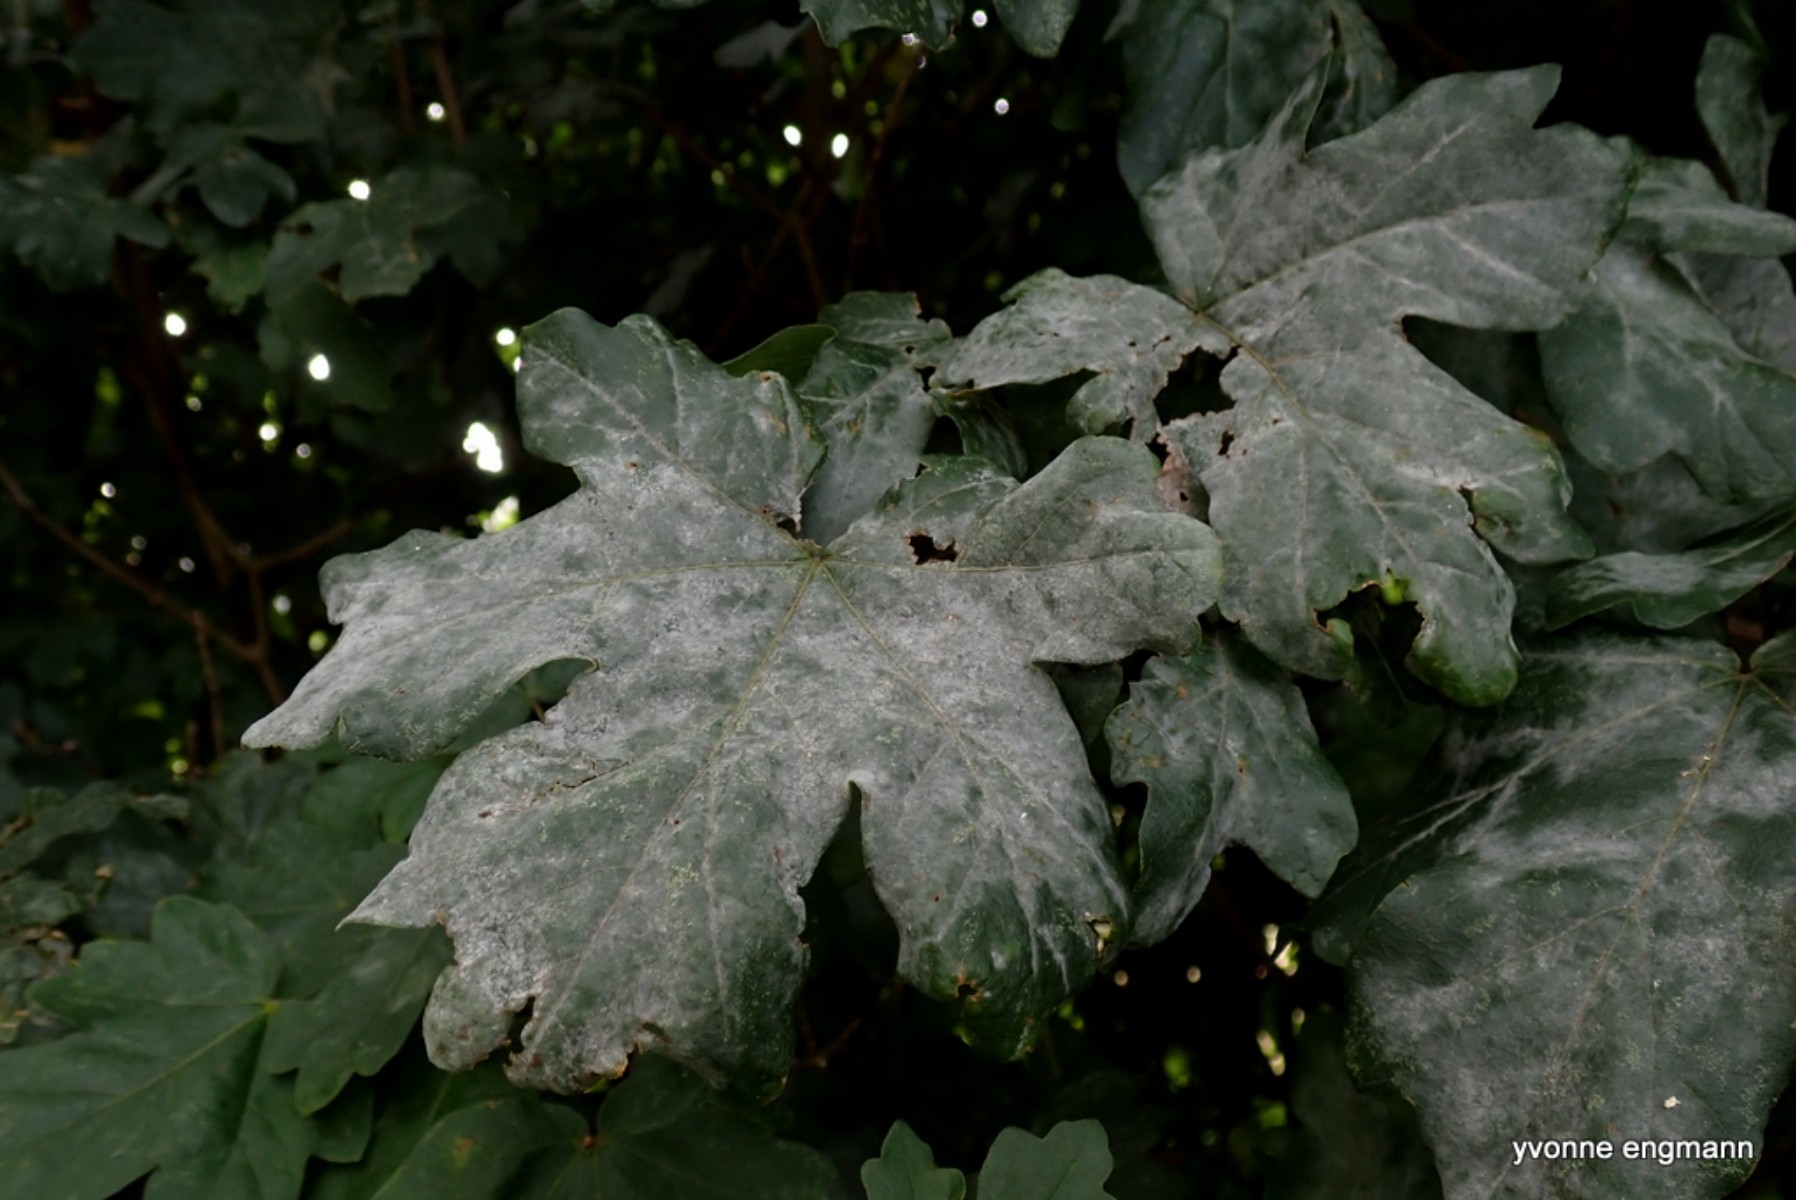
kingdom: Fungi
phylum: Ascomycota
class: Leotiomycetes
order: Helotiales
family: Erysiphaceae
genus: Sawadaea
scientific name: Sawadaea bicornis
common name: Maple mildew
